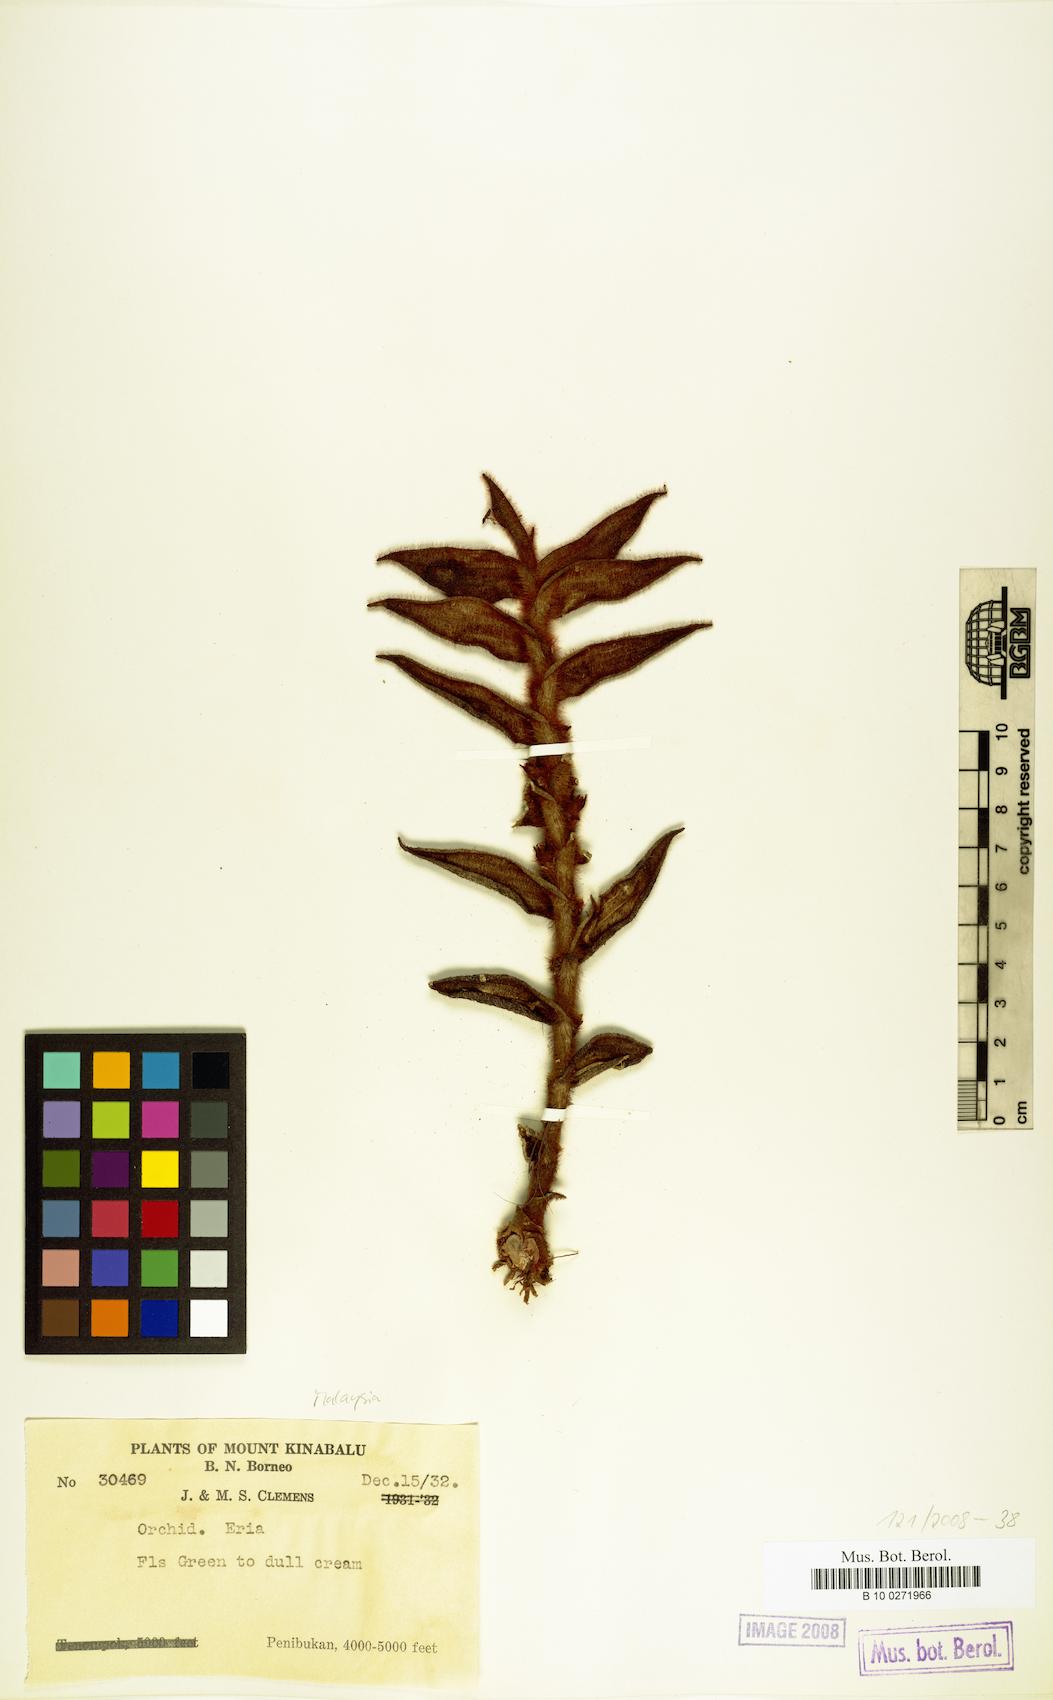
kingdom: Plantae
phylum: Tracheophyta
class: Liliopsida
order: Asparagales
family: Orchidaceae
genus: Eria
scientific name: Eria
